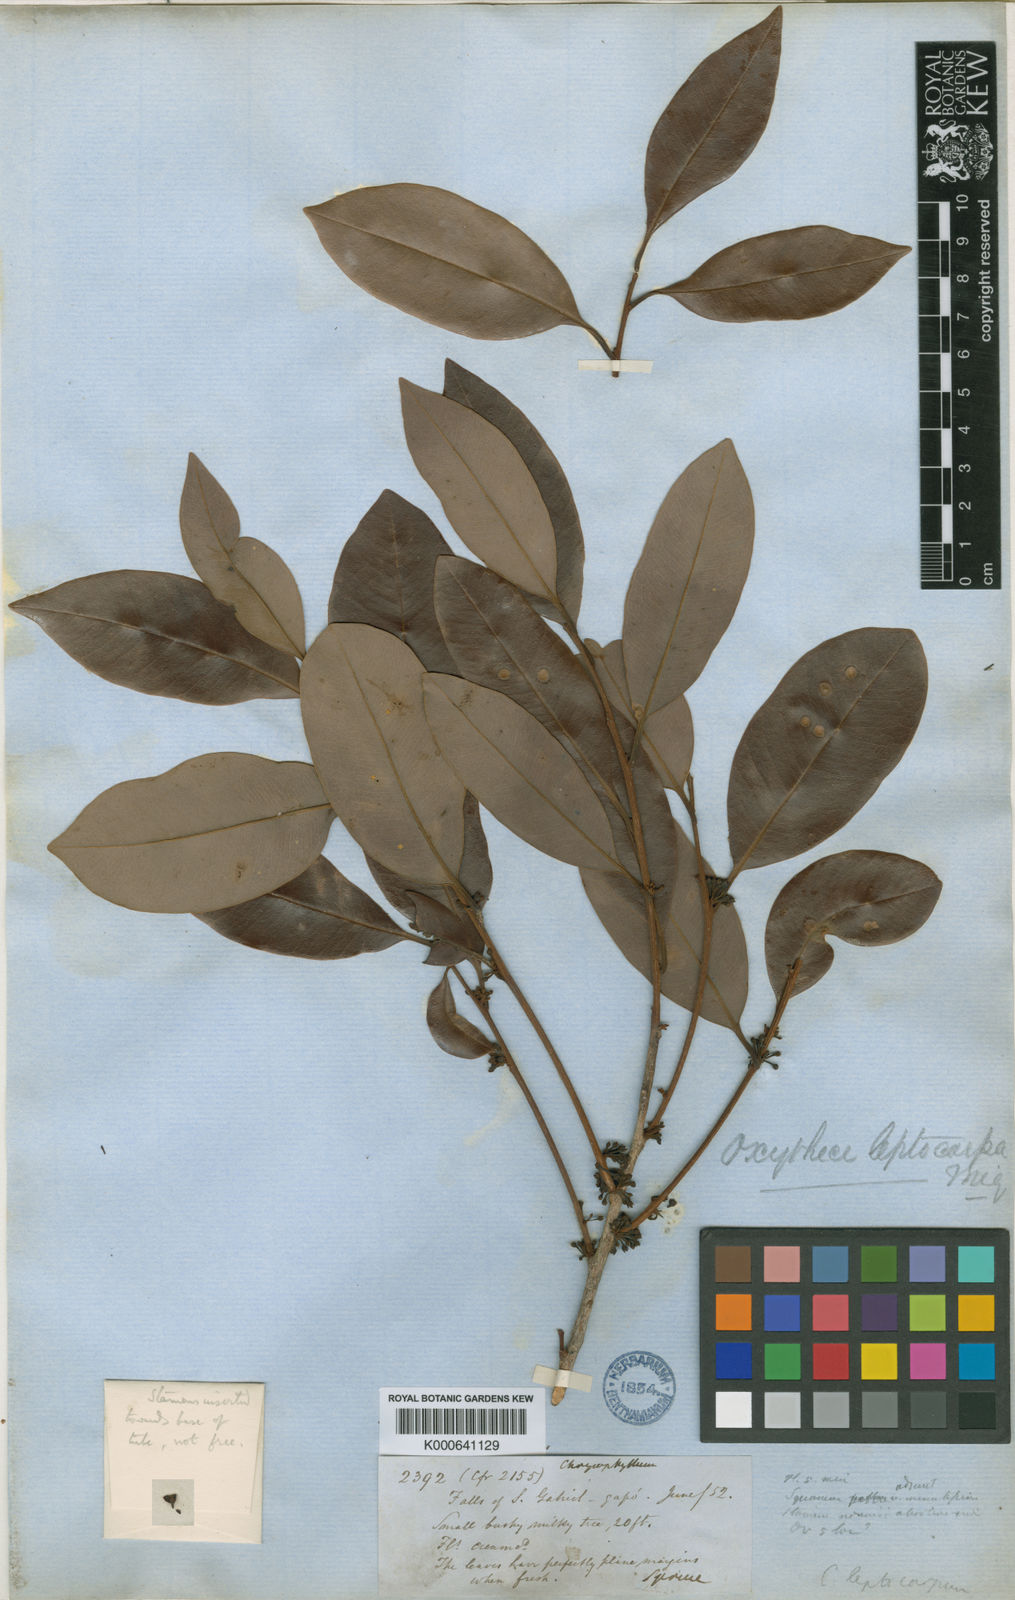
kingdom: Plantae
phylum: Tracheophyta
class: Magnoliopsida
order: Ericales
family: Sapotaceae
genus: Pouteria
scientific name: Pouteria elegans
